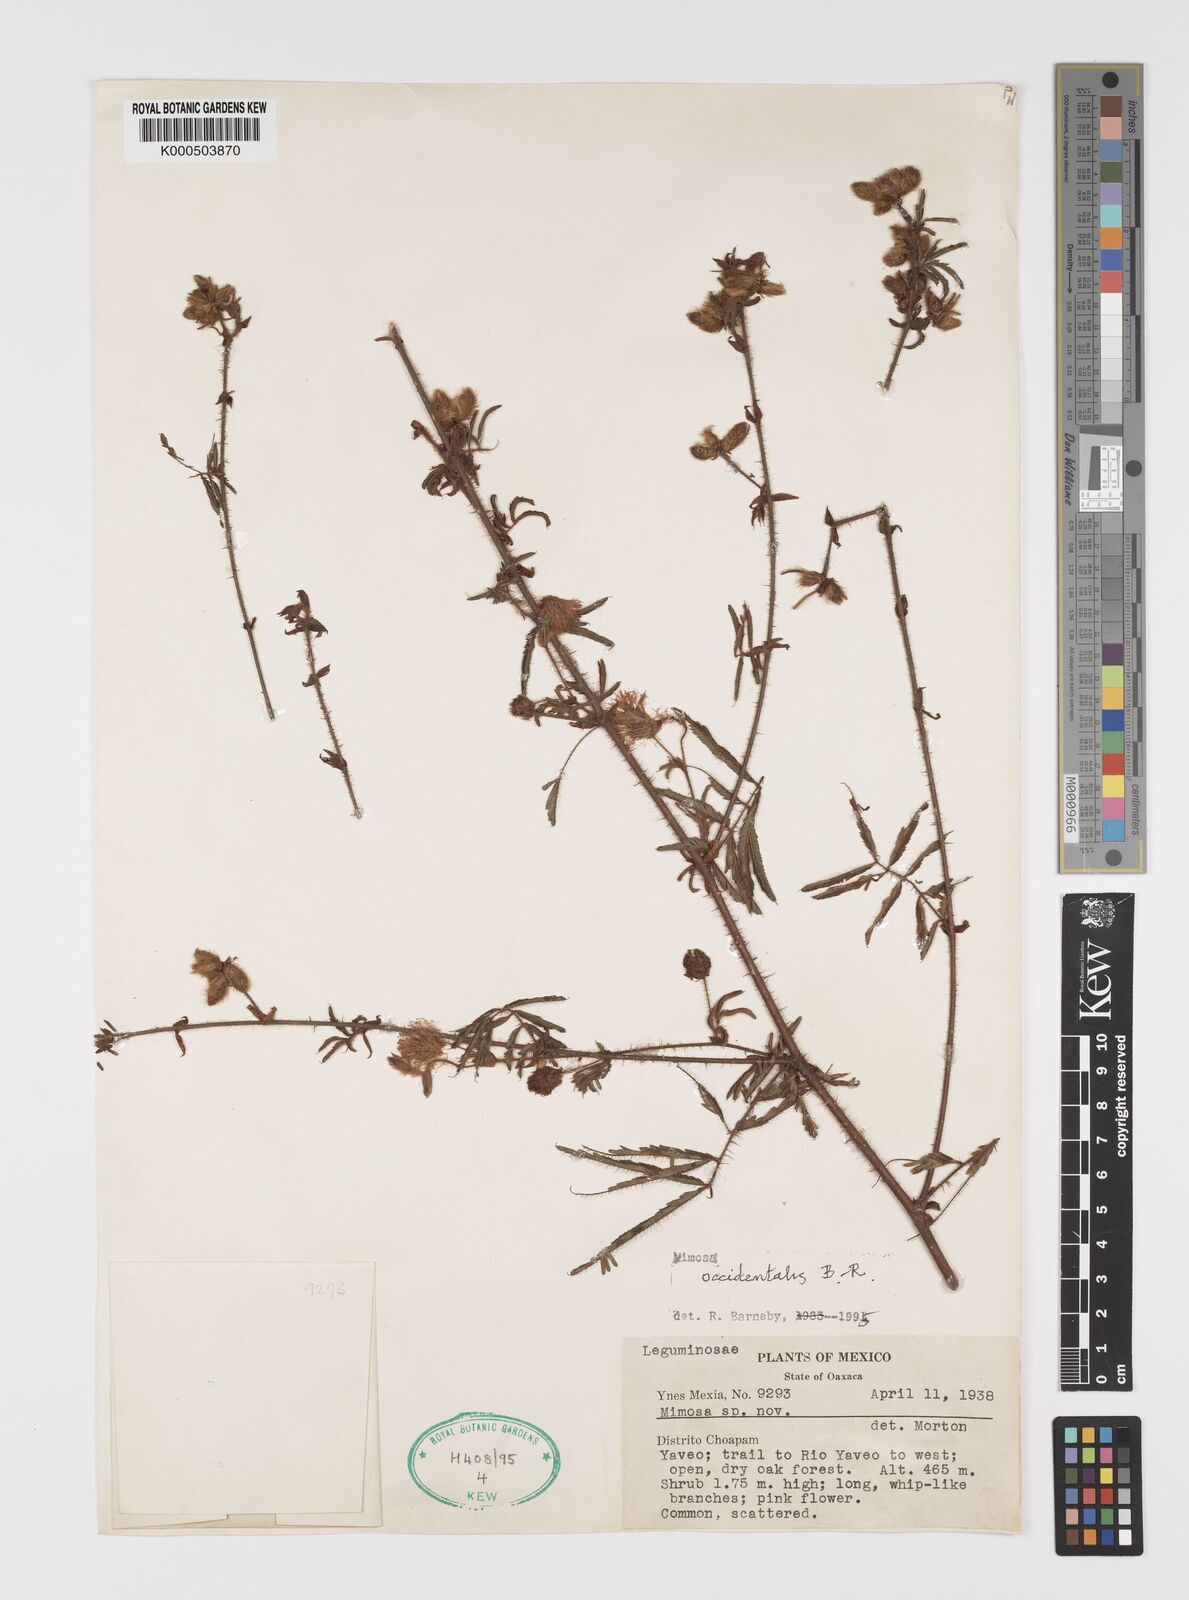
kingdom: Plantae
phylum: Tracheophyta
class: Magnoliopsida
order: Fabales
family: Fabaceae
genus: Mimosa
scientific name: Mimosa occidentalis
